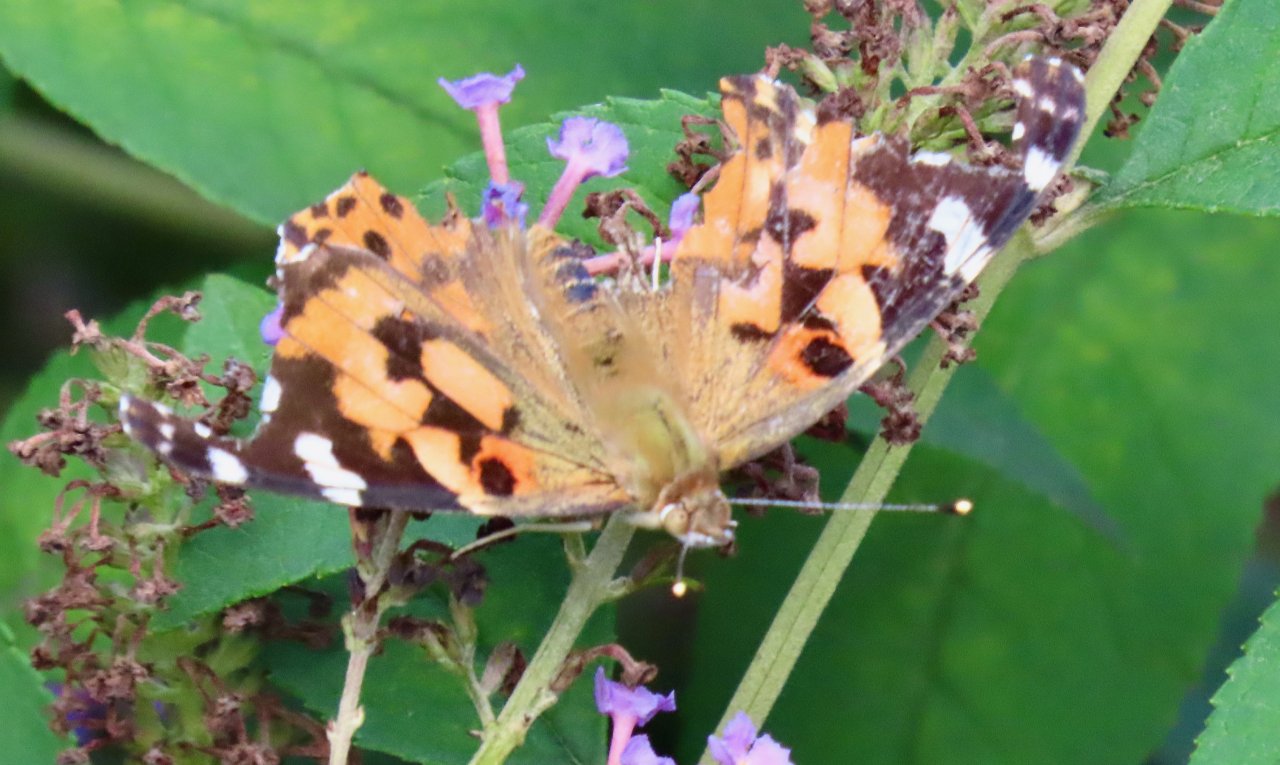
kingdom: Animalia
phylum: Arthropoda
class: Insecta
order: Lepidoptera
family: Nymphalidae
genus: Vanessa
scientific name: Vanessa cardui
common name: Painted Lady
